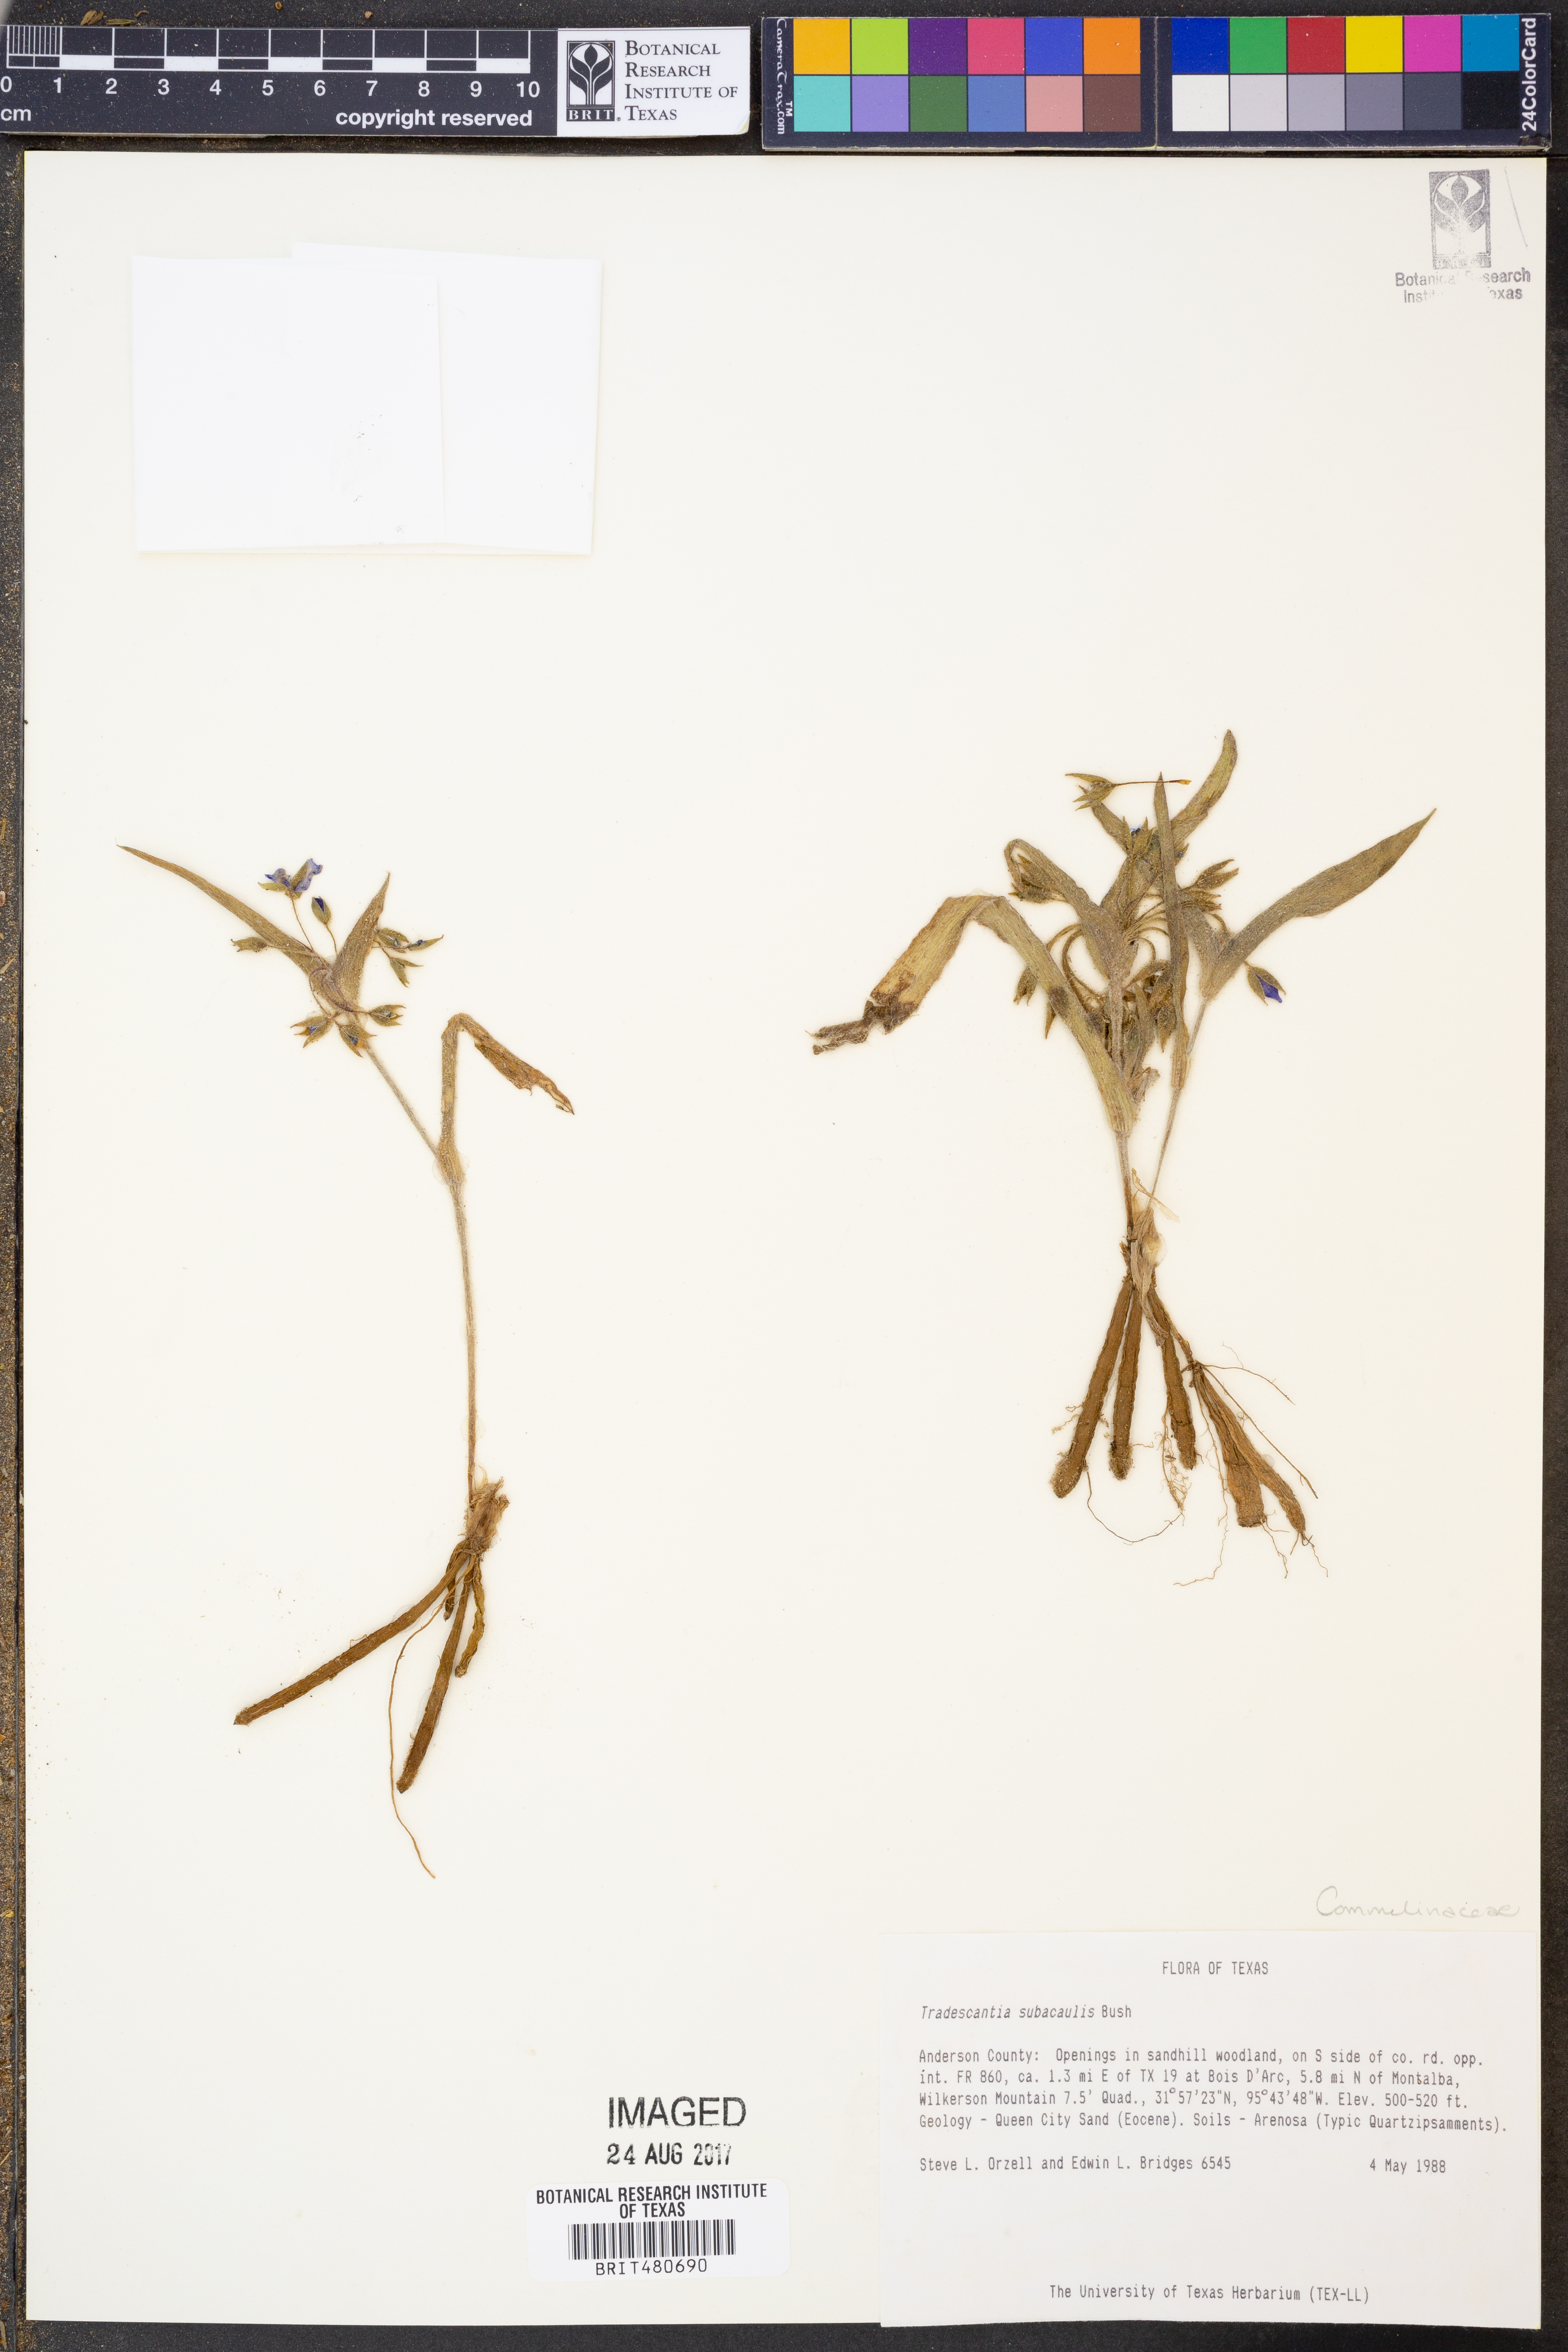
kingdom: Plantae
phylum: Tracheophyta
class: Liliopsida
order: Commelinales
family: Commelinaceae
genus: Tradescantia
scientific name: Tradescantia subacaulis
